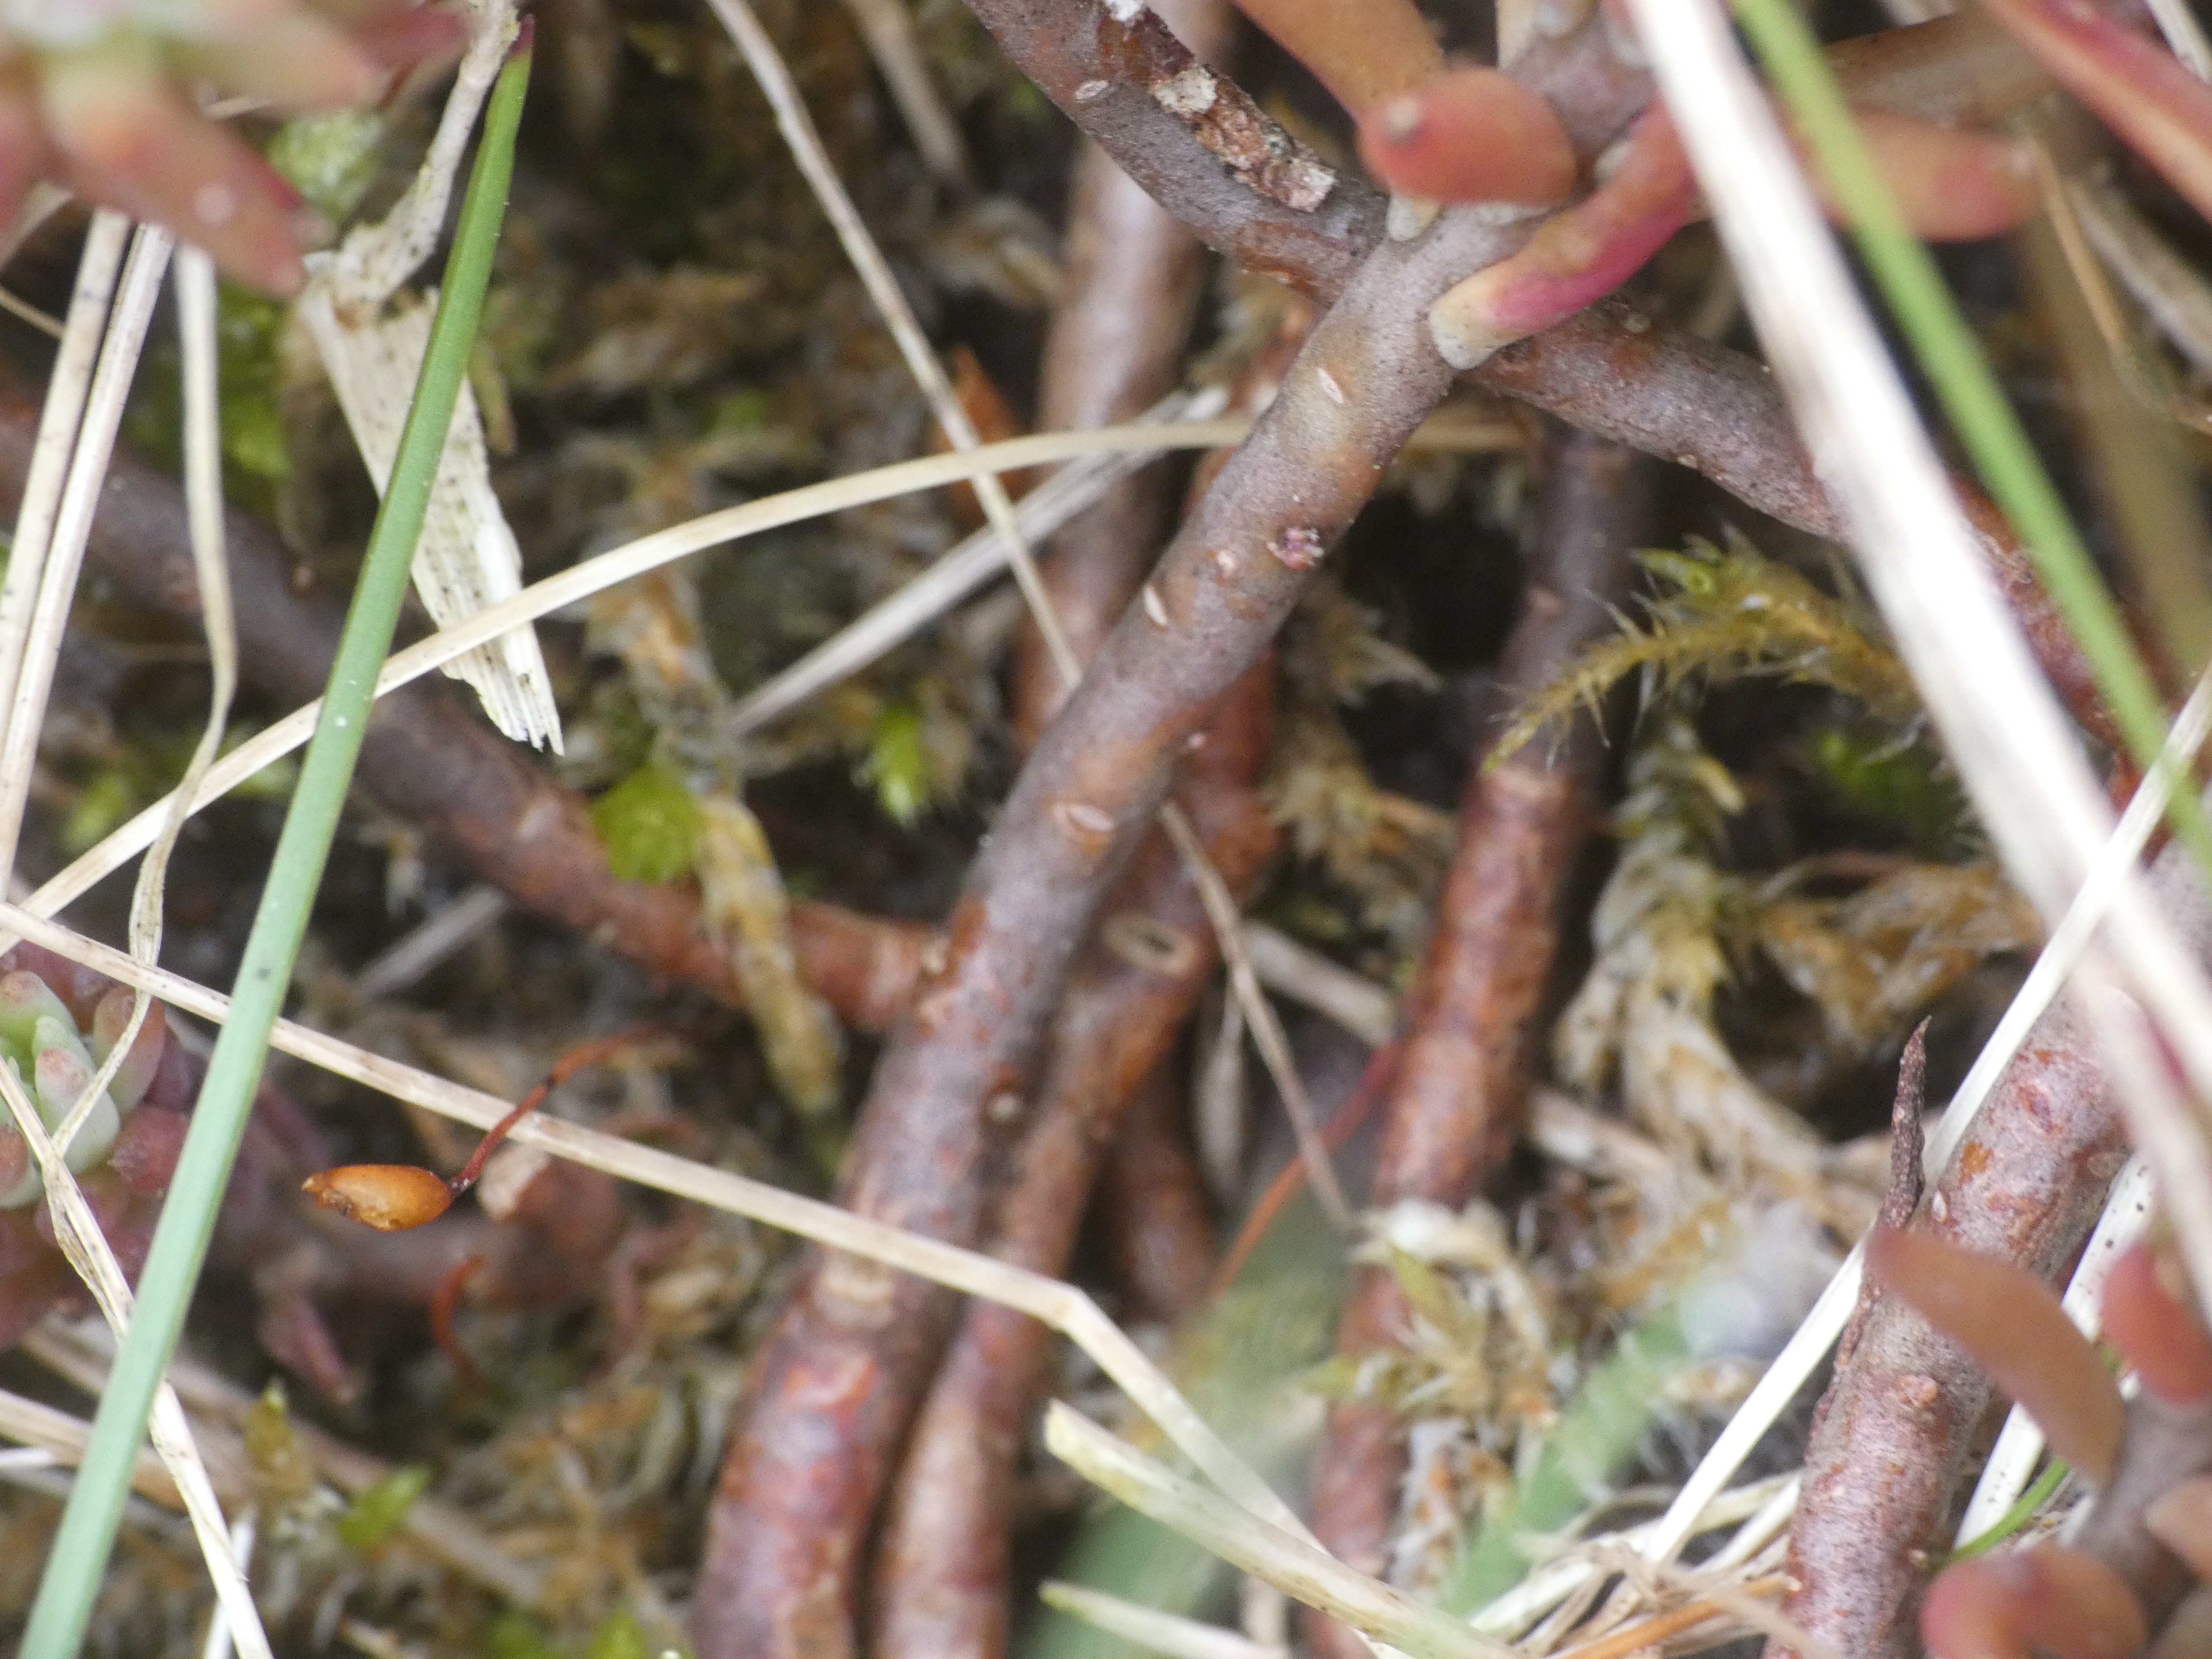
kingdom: Plantae
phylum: Tracheophyta
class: Magnoliopsida
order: Saxifragales
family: Crassulaceae
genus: Petrosedum
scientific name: Petrosedum rupestre
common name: Bjerg-stenurt
